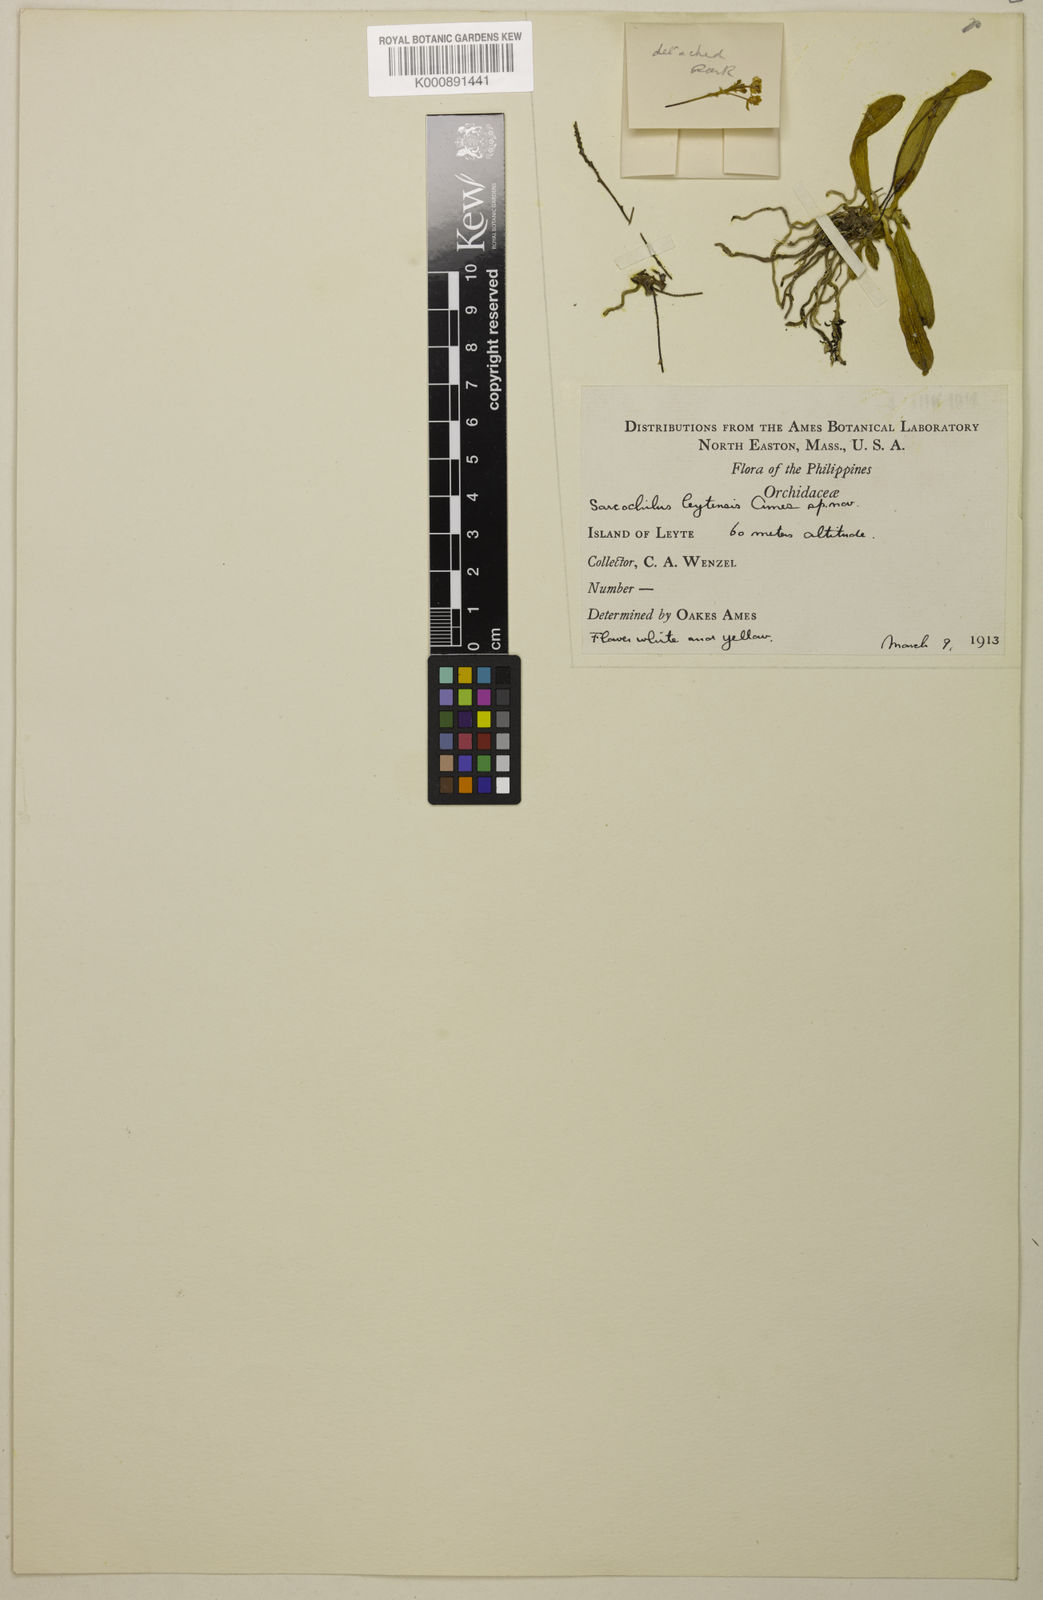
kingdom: Plantae
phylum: Tracheophyta
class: Liliopsida
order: Asparagales
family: Orchidaceae
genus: Grosourdya
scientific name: Grosourdya leytensis
